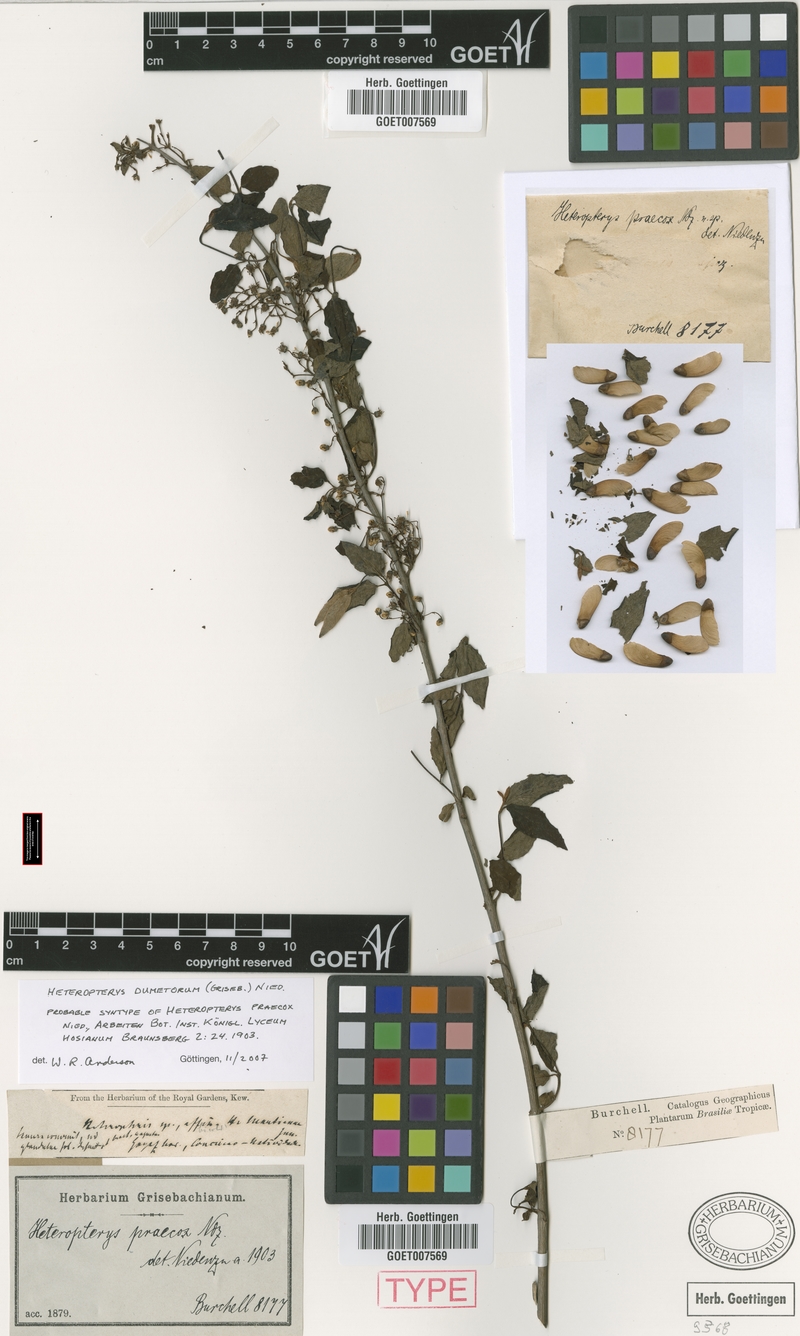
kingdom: Plantae
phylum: Tracheophyta
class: Magnoliopsida
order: Malpighiales
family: Malpighiaceae
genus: Heteropterys
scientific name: Heteropterys dumetorum
